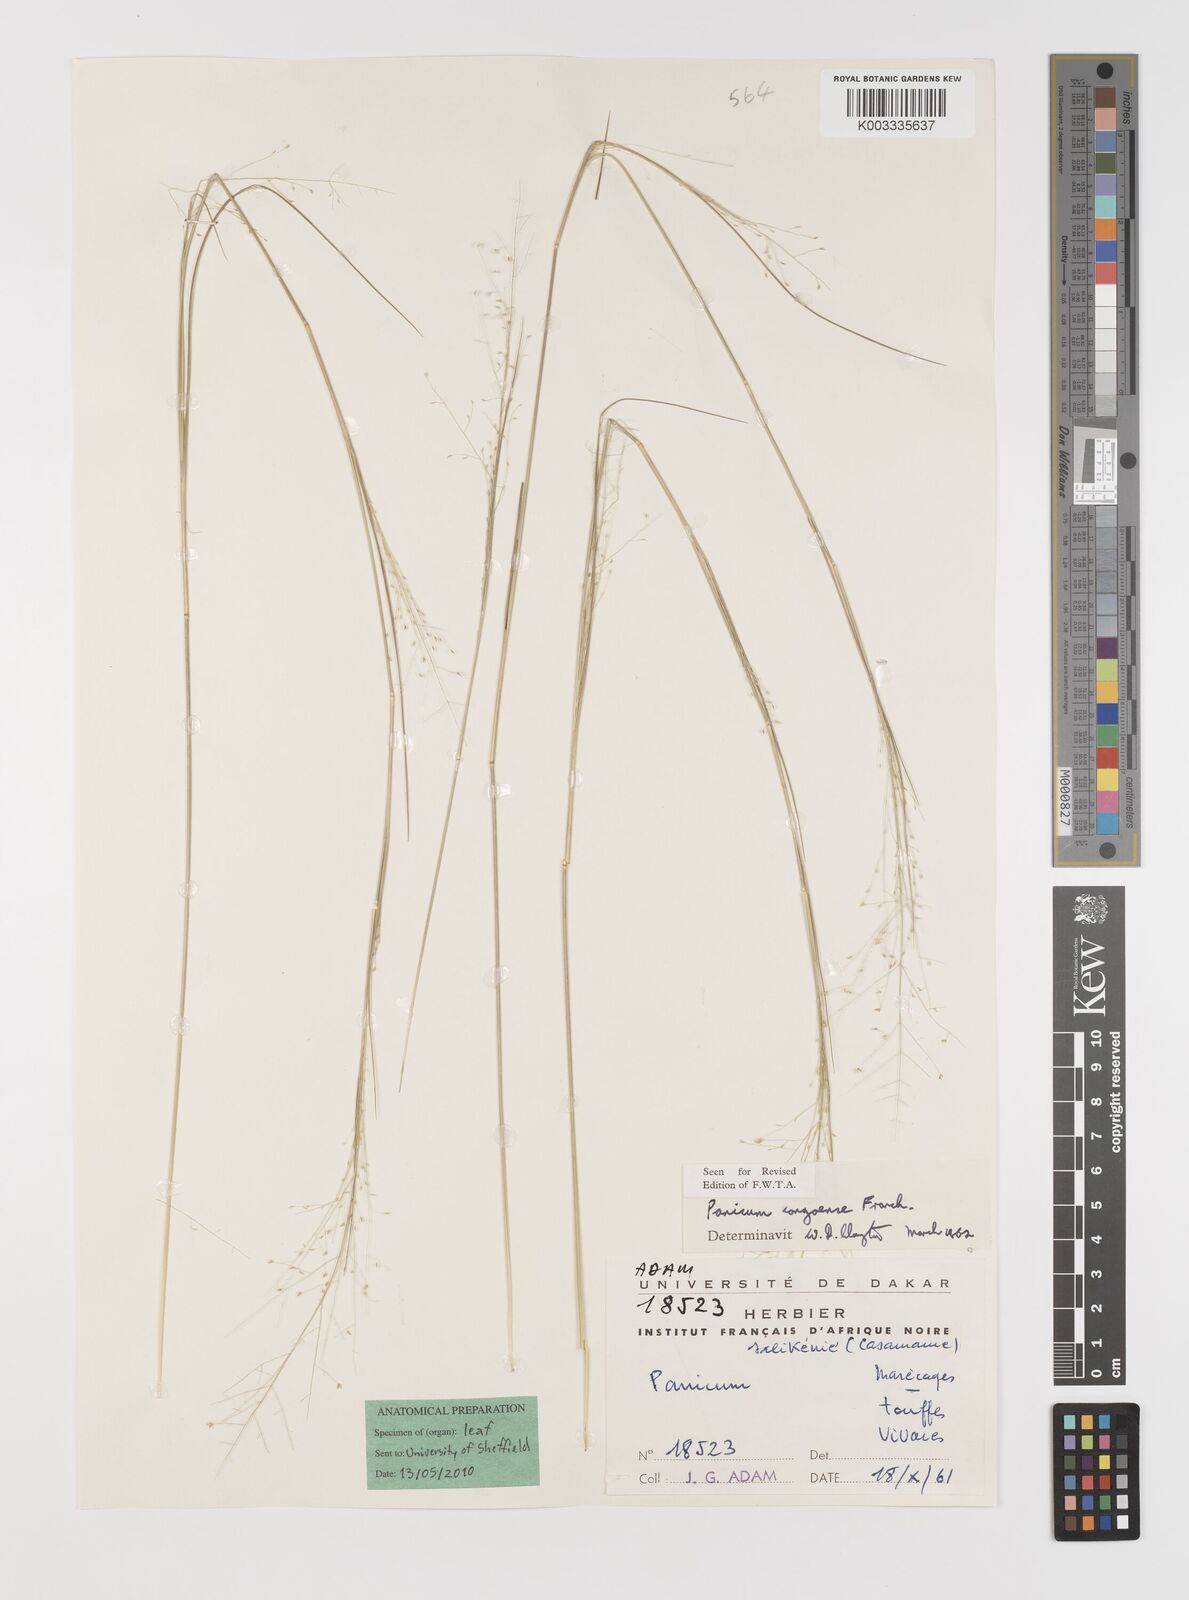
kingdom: Plantae
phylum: Tracheophyta
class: Liliopsida
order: Poales
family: Poaceae
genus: Panicum
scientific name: Panicum congoense
